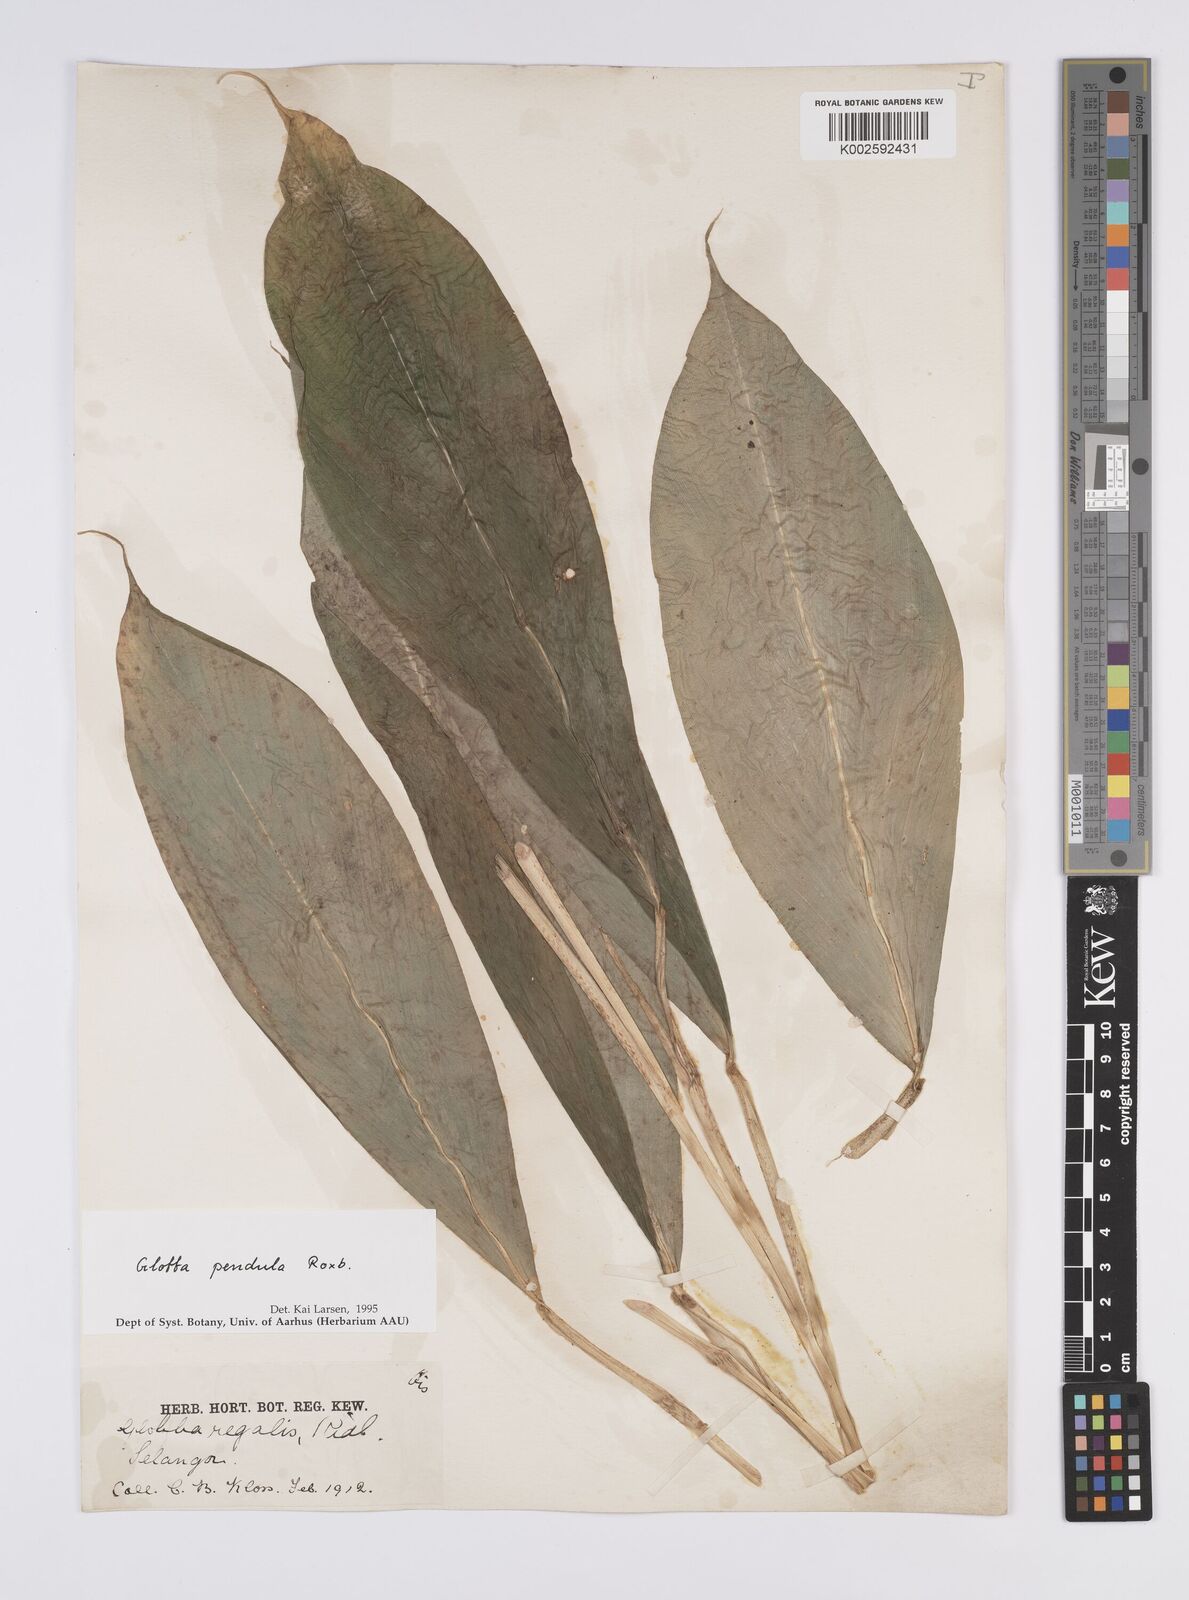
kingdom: Plantae
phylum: Tracheophyta
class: Liliopsida
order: Zingiberales
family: Zingiberaceae
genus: Globba
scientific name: Globba pendula
